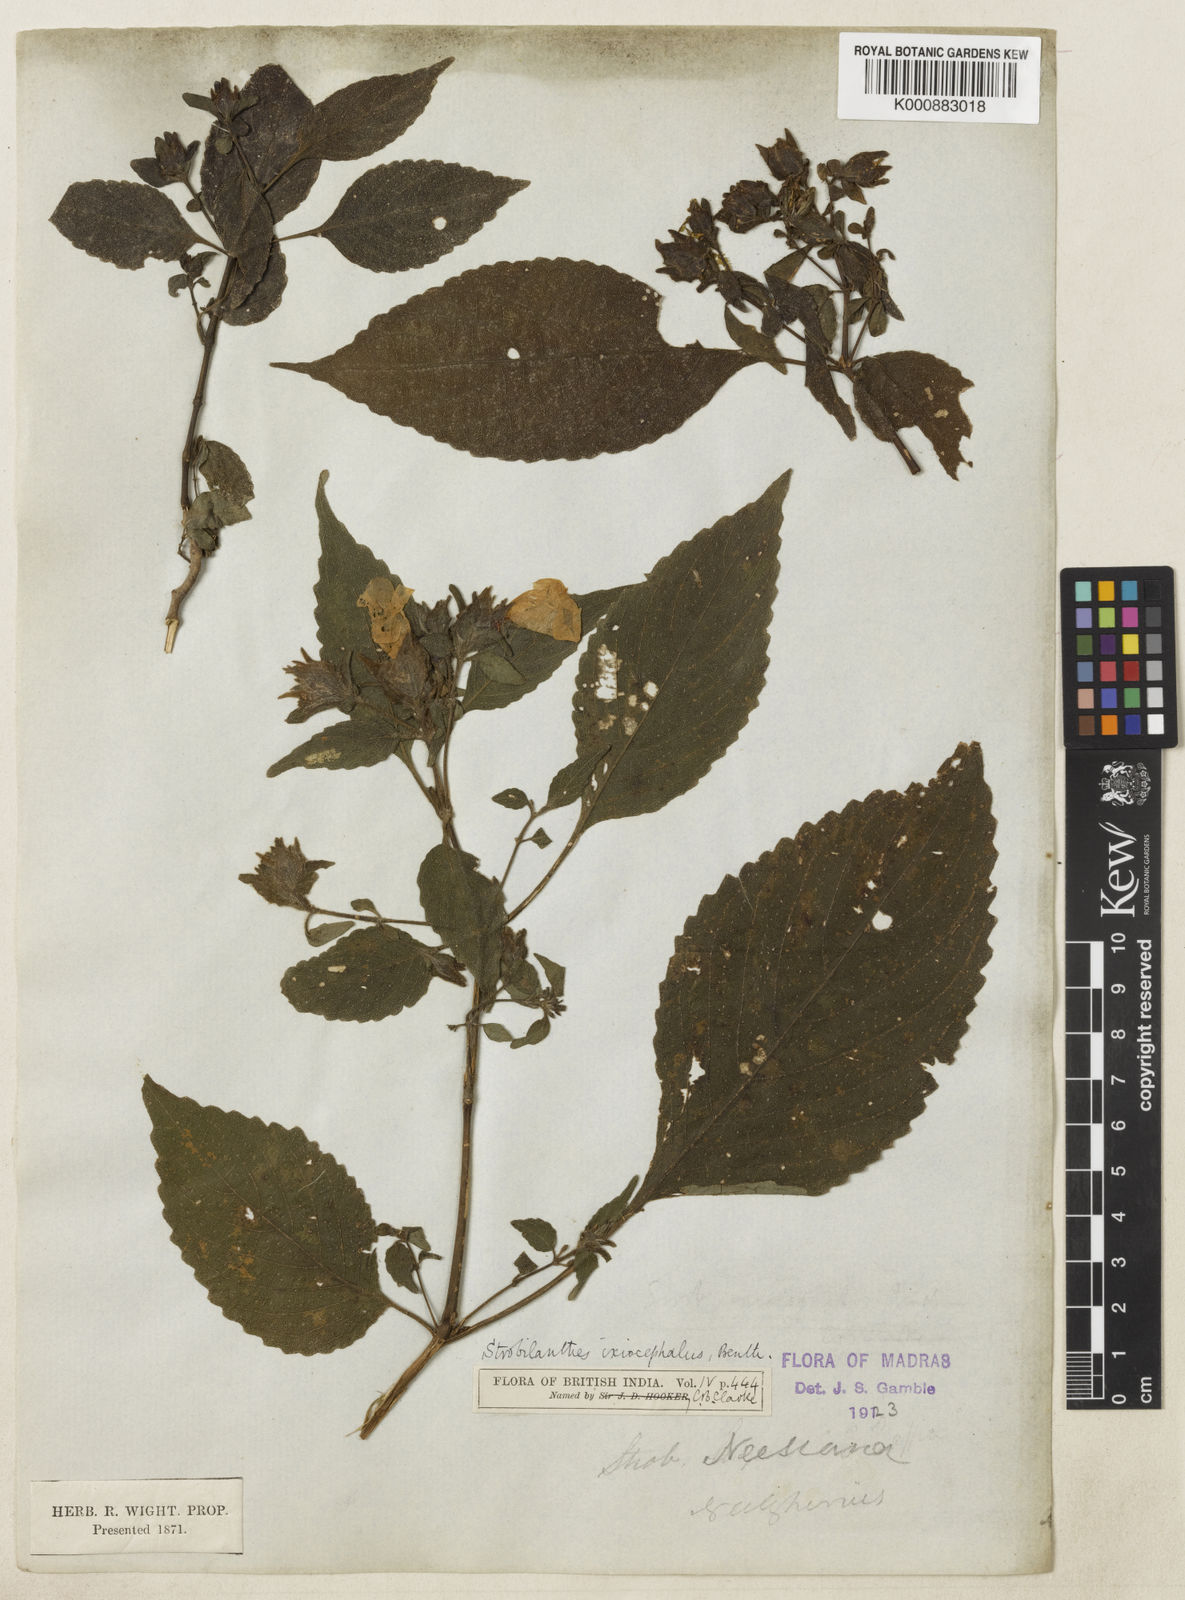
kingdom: Plantae
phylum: Tracheophyta
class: Magnoliopsida
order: Lamiales
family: Acanthaceae
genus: Strobilanthes
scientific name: Strobilanthes ixiocephala
